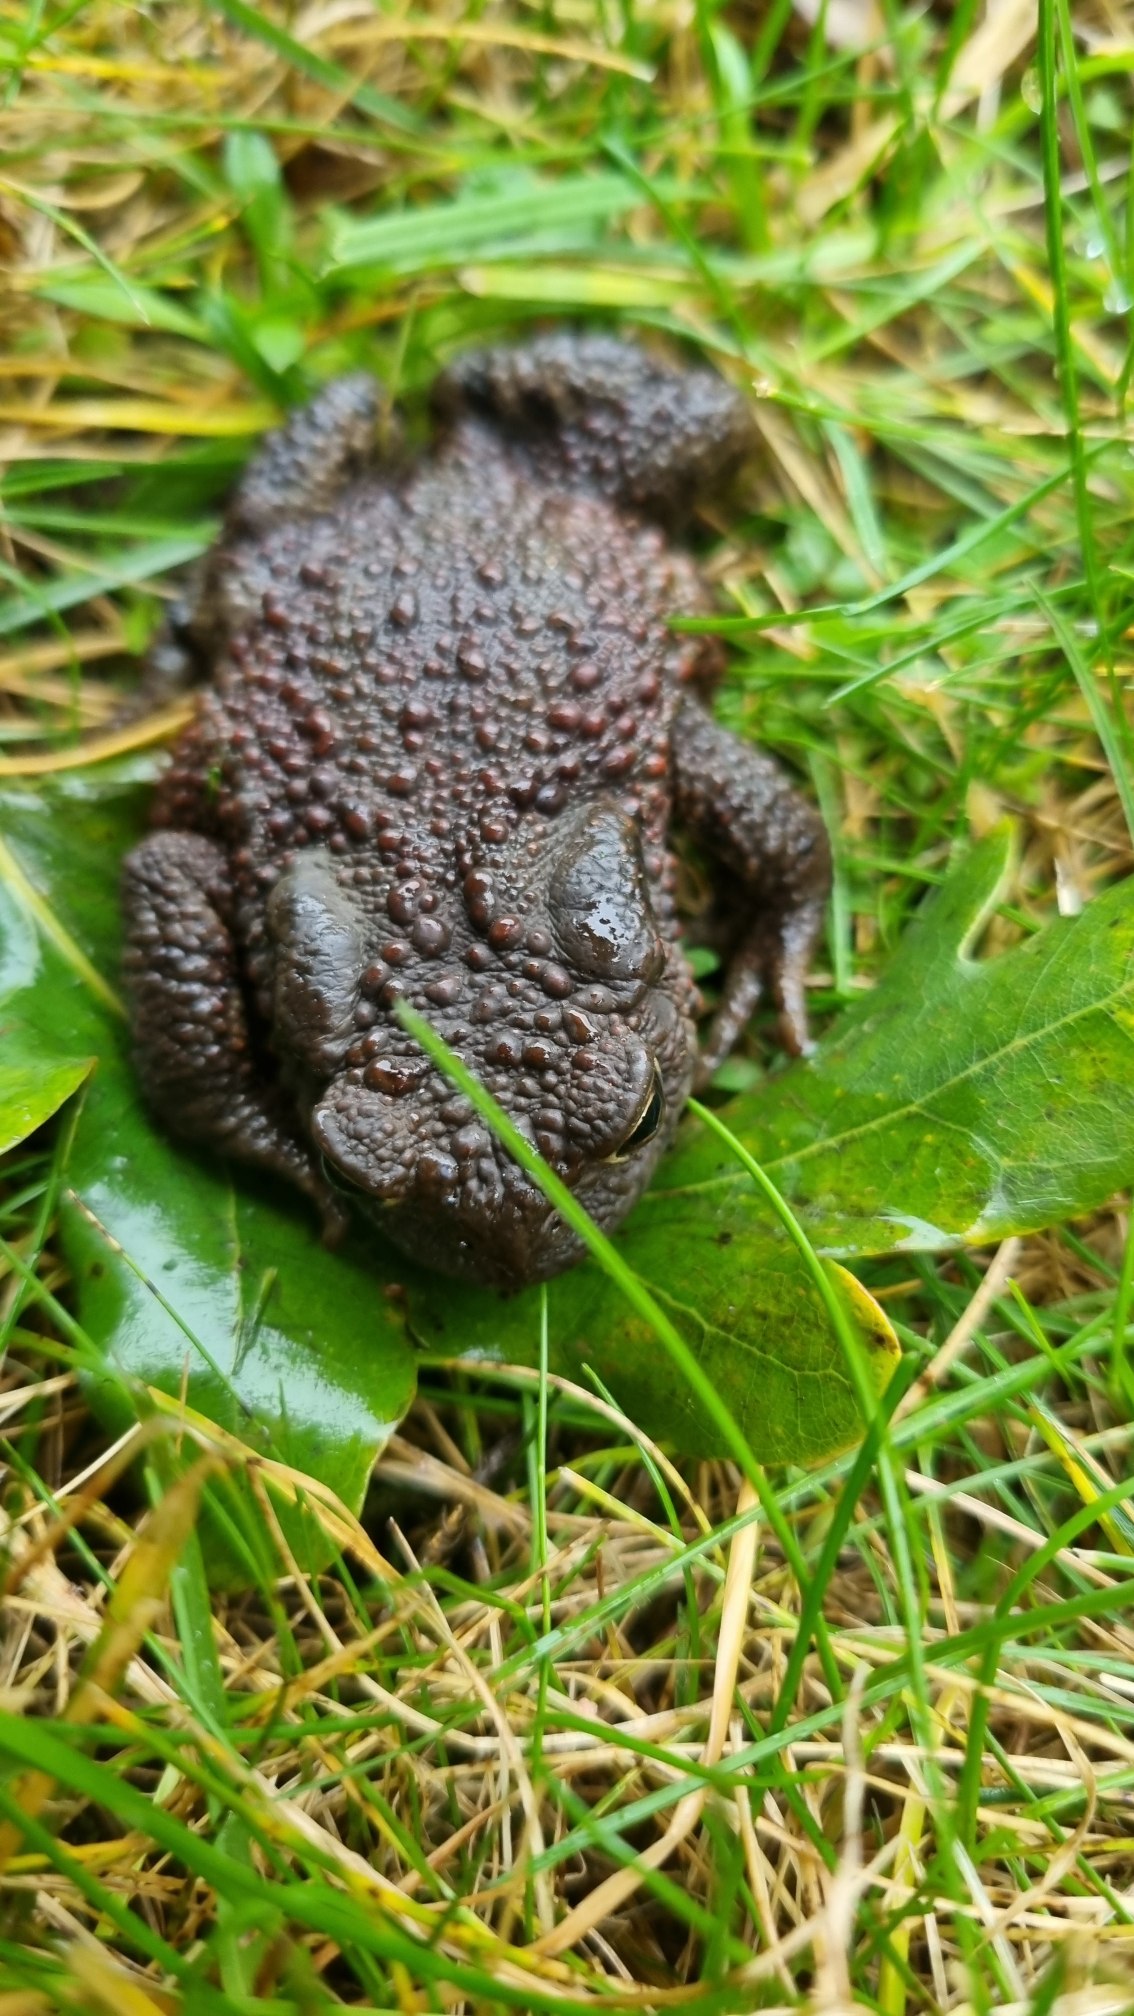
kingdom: Animalia
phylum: Chordata
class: Amphibia
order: Anura
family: Bufonidae
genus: Bufo
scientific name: Bufo bufo
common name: Skrubtudse
